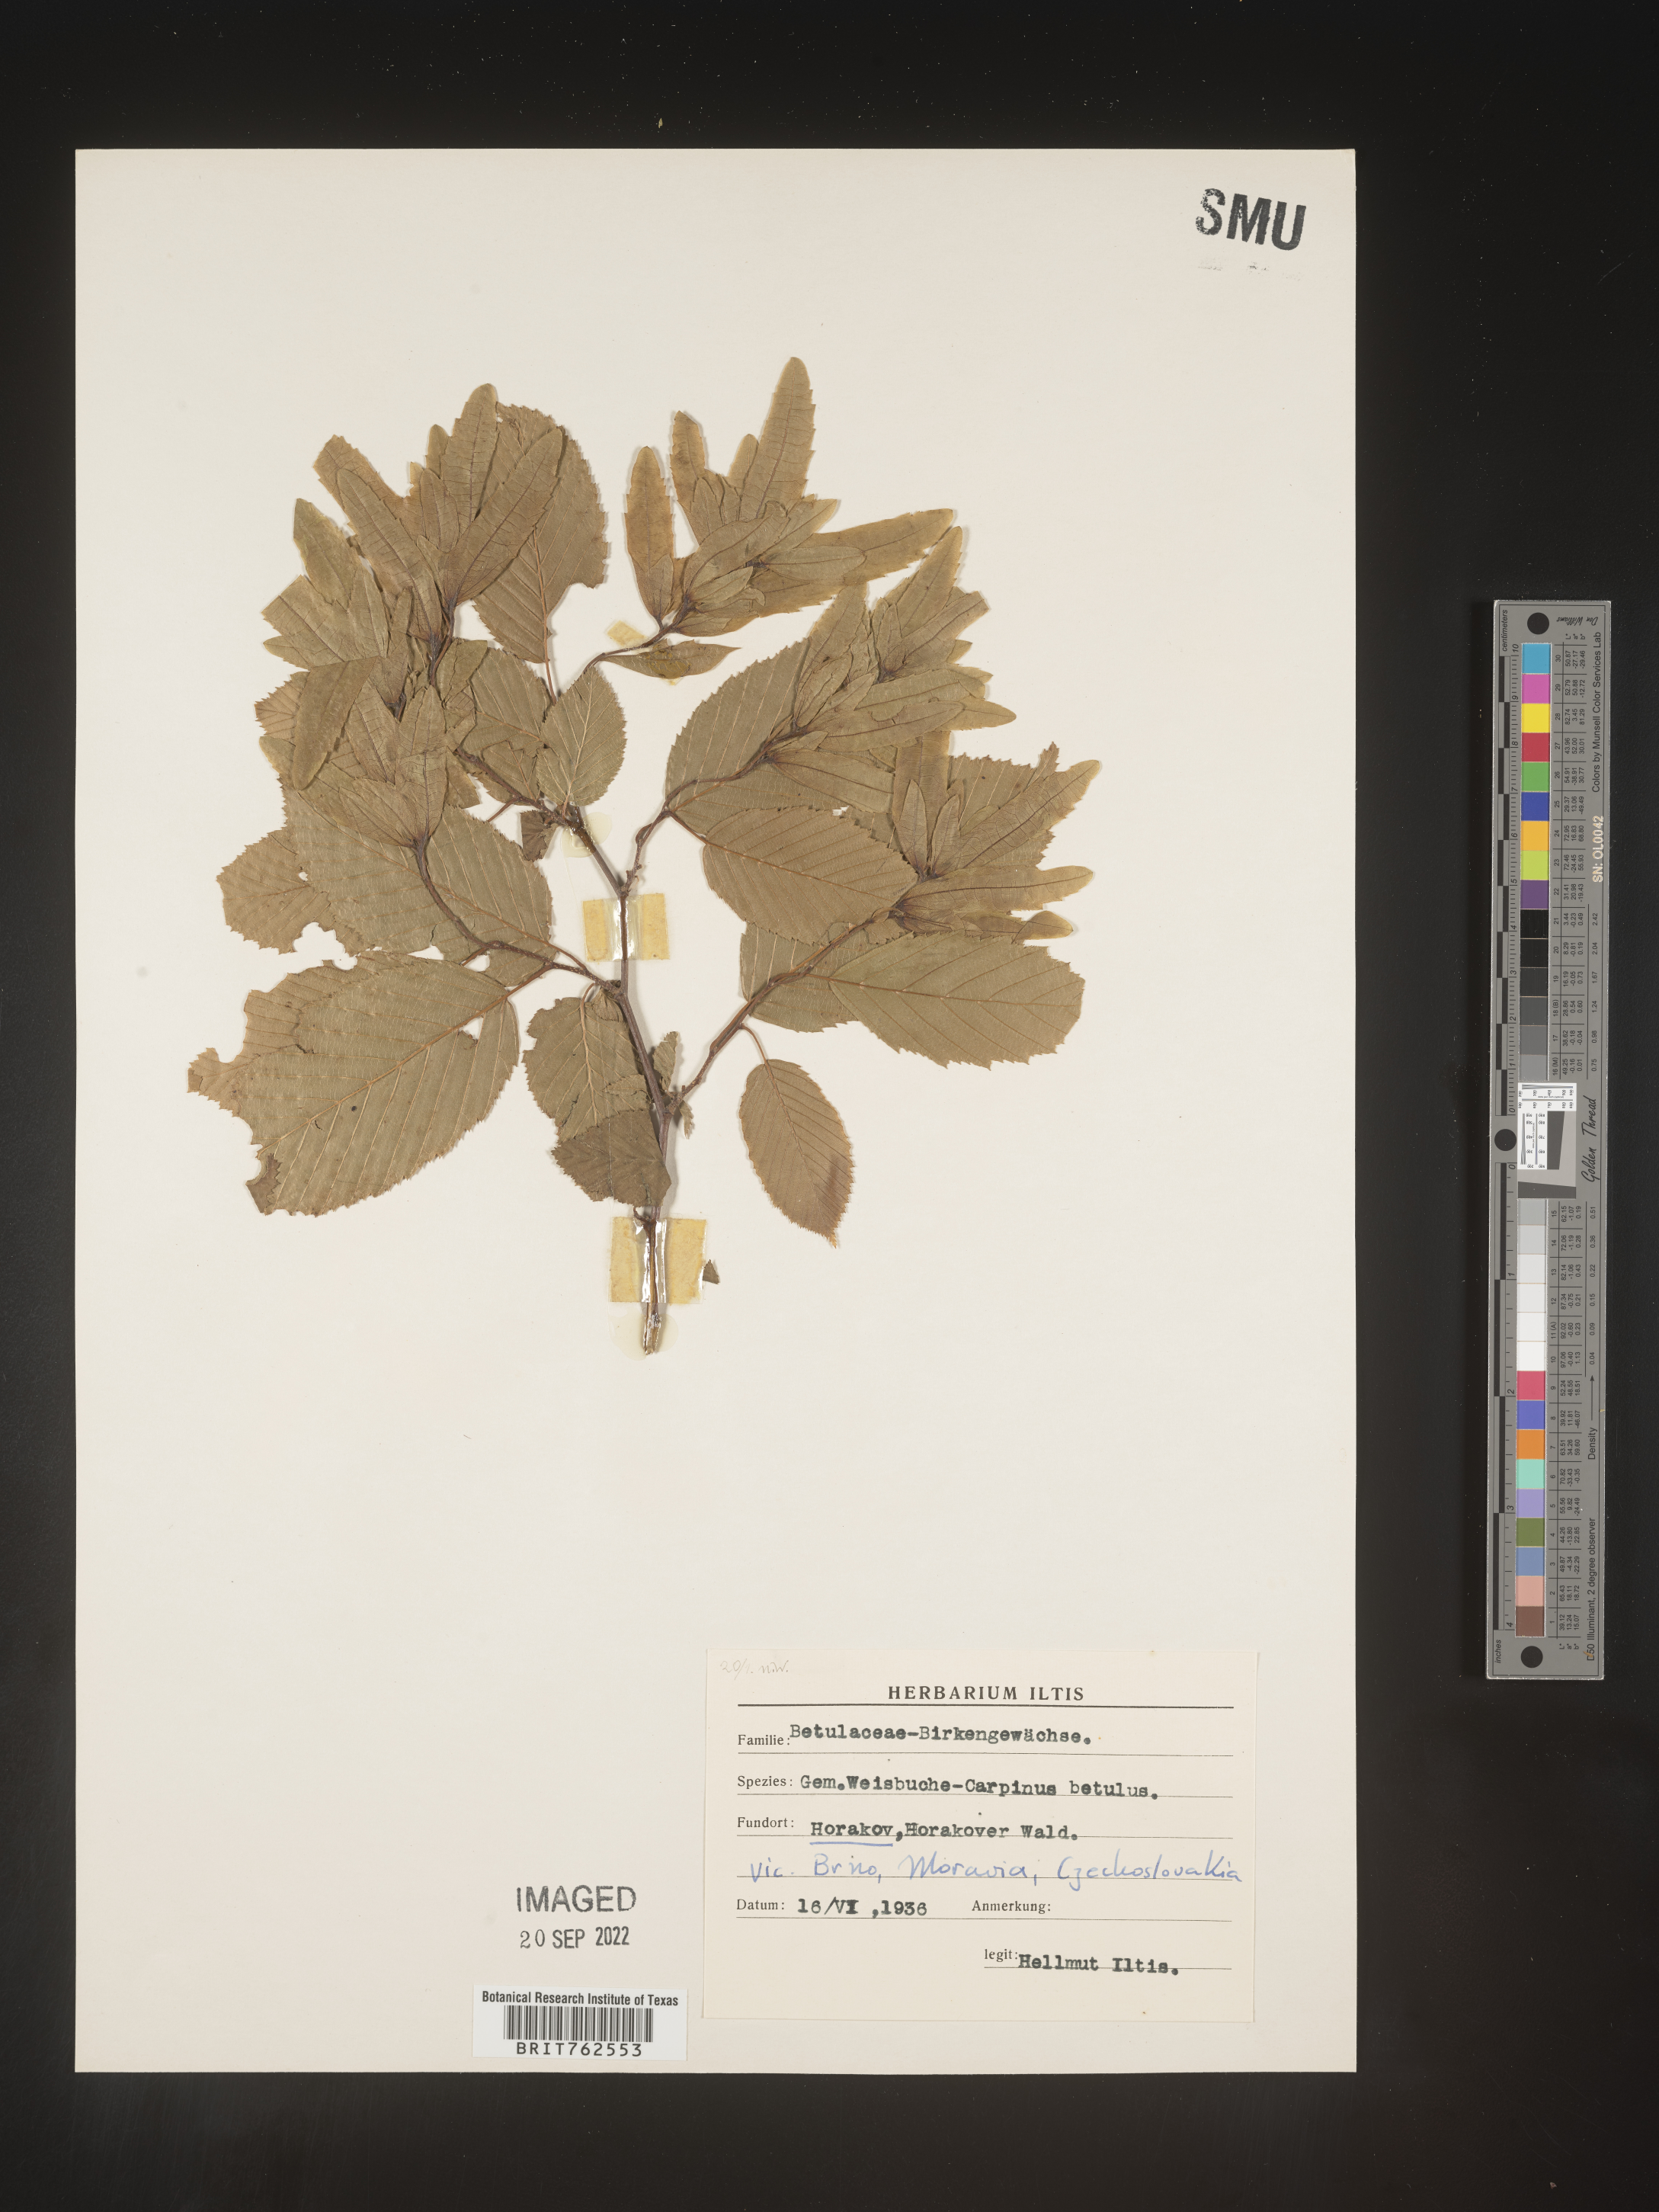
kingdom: Plantae
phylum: Tracheophyta
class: Magnoliopsida
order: Fagales
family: Betulaceae
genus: Carpinus
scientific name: Carpinus
